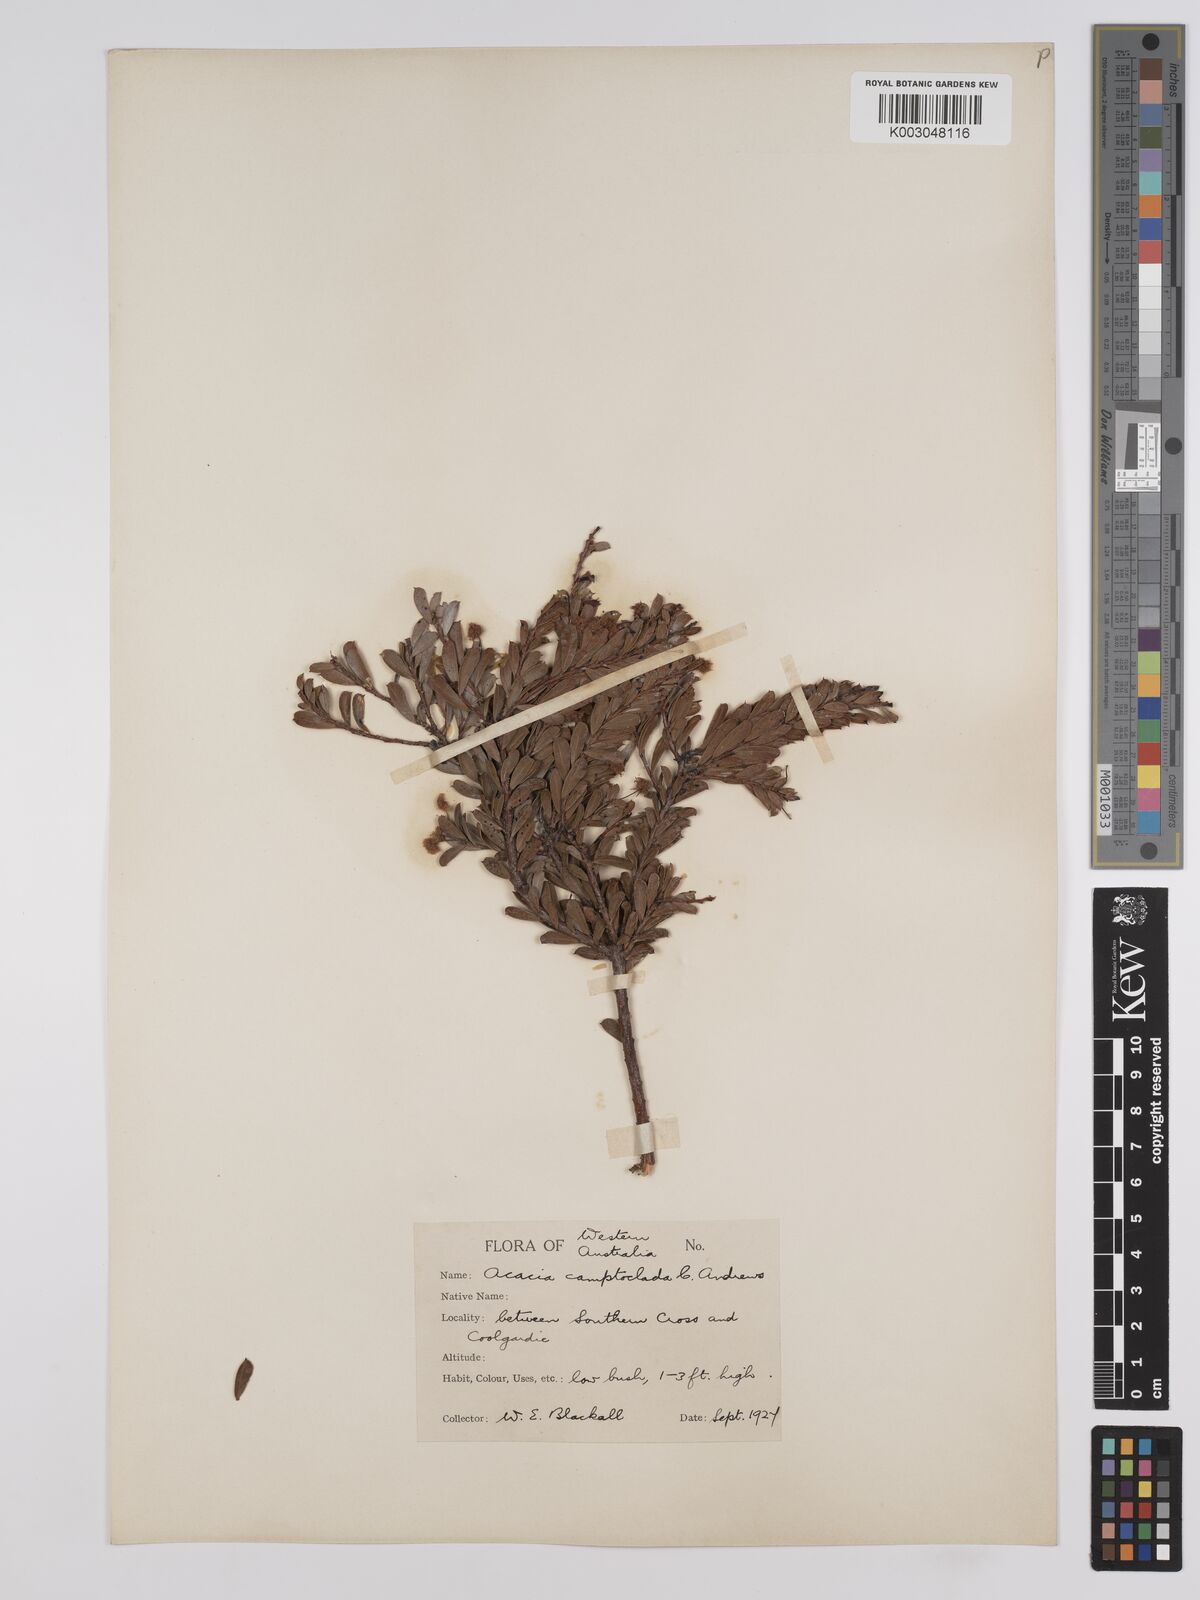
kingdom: Plantae
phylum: Tracheophyta
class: Magnoliopsida
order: Fabales
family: Fabaceae
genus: Acacia
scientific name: Acacia camptoclada
